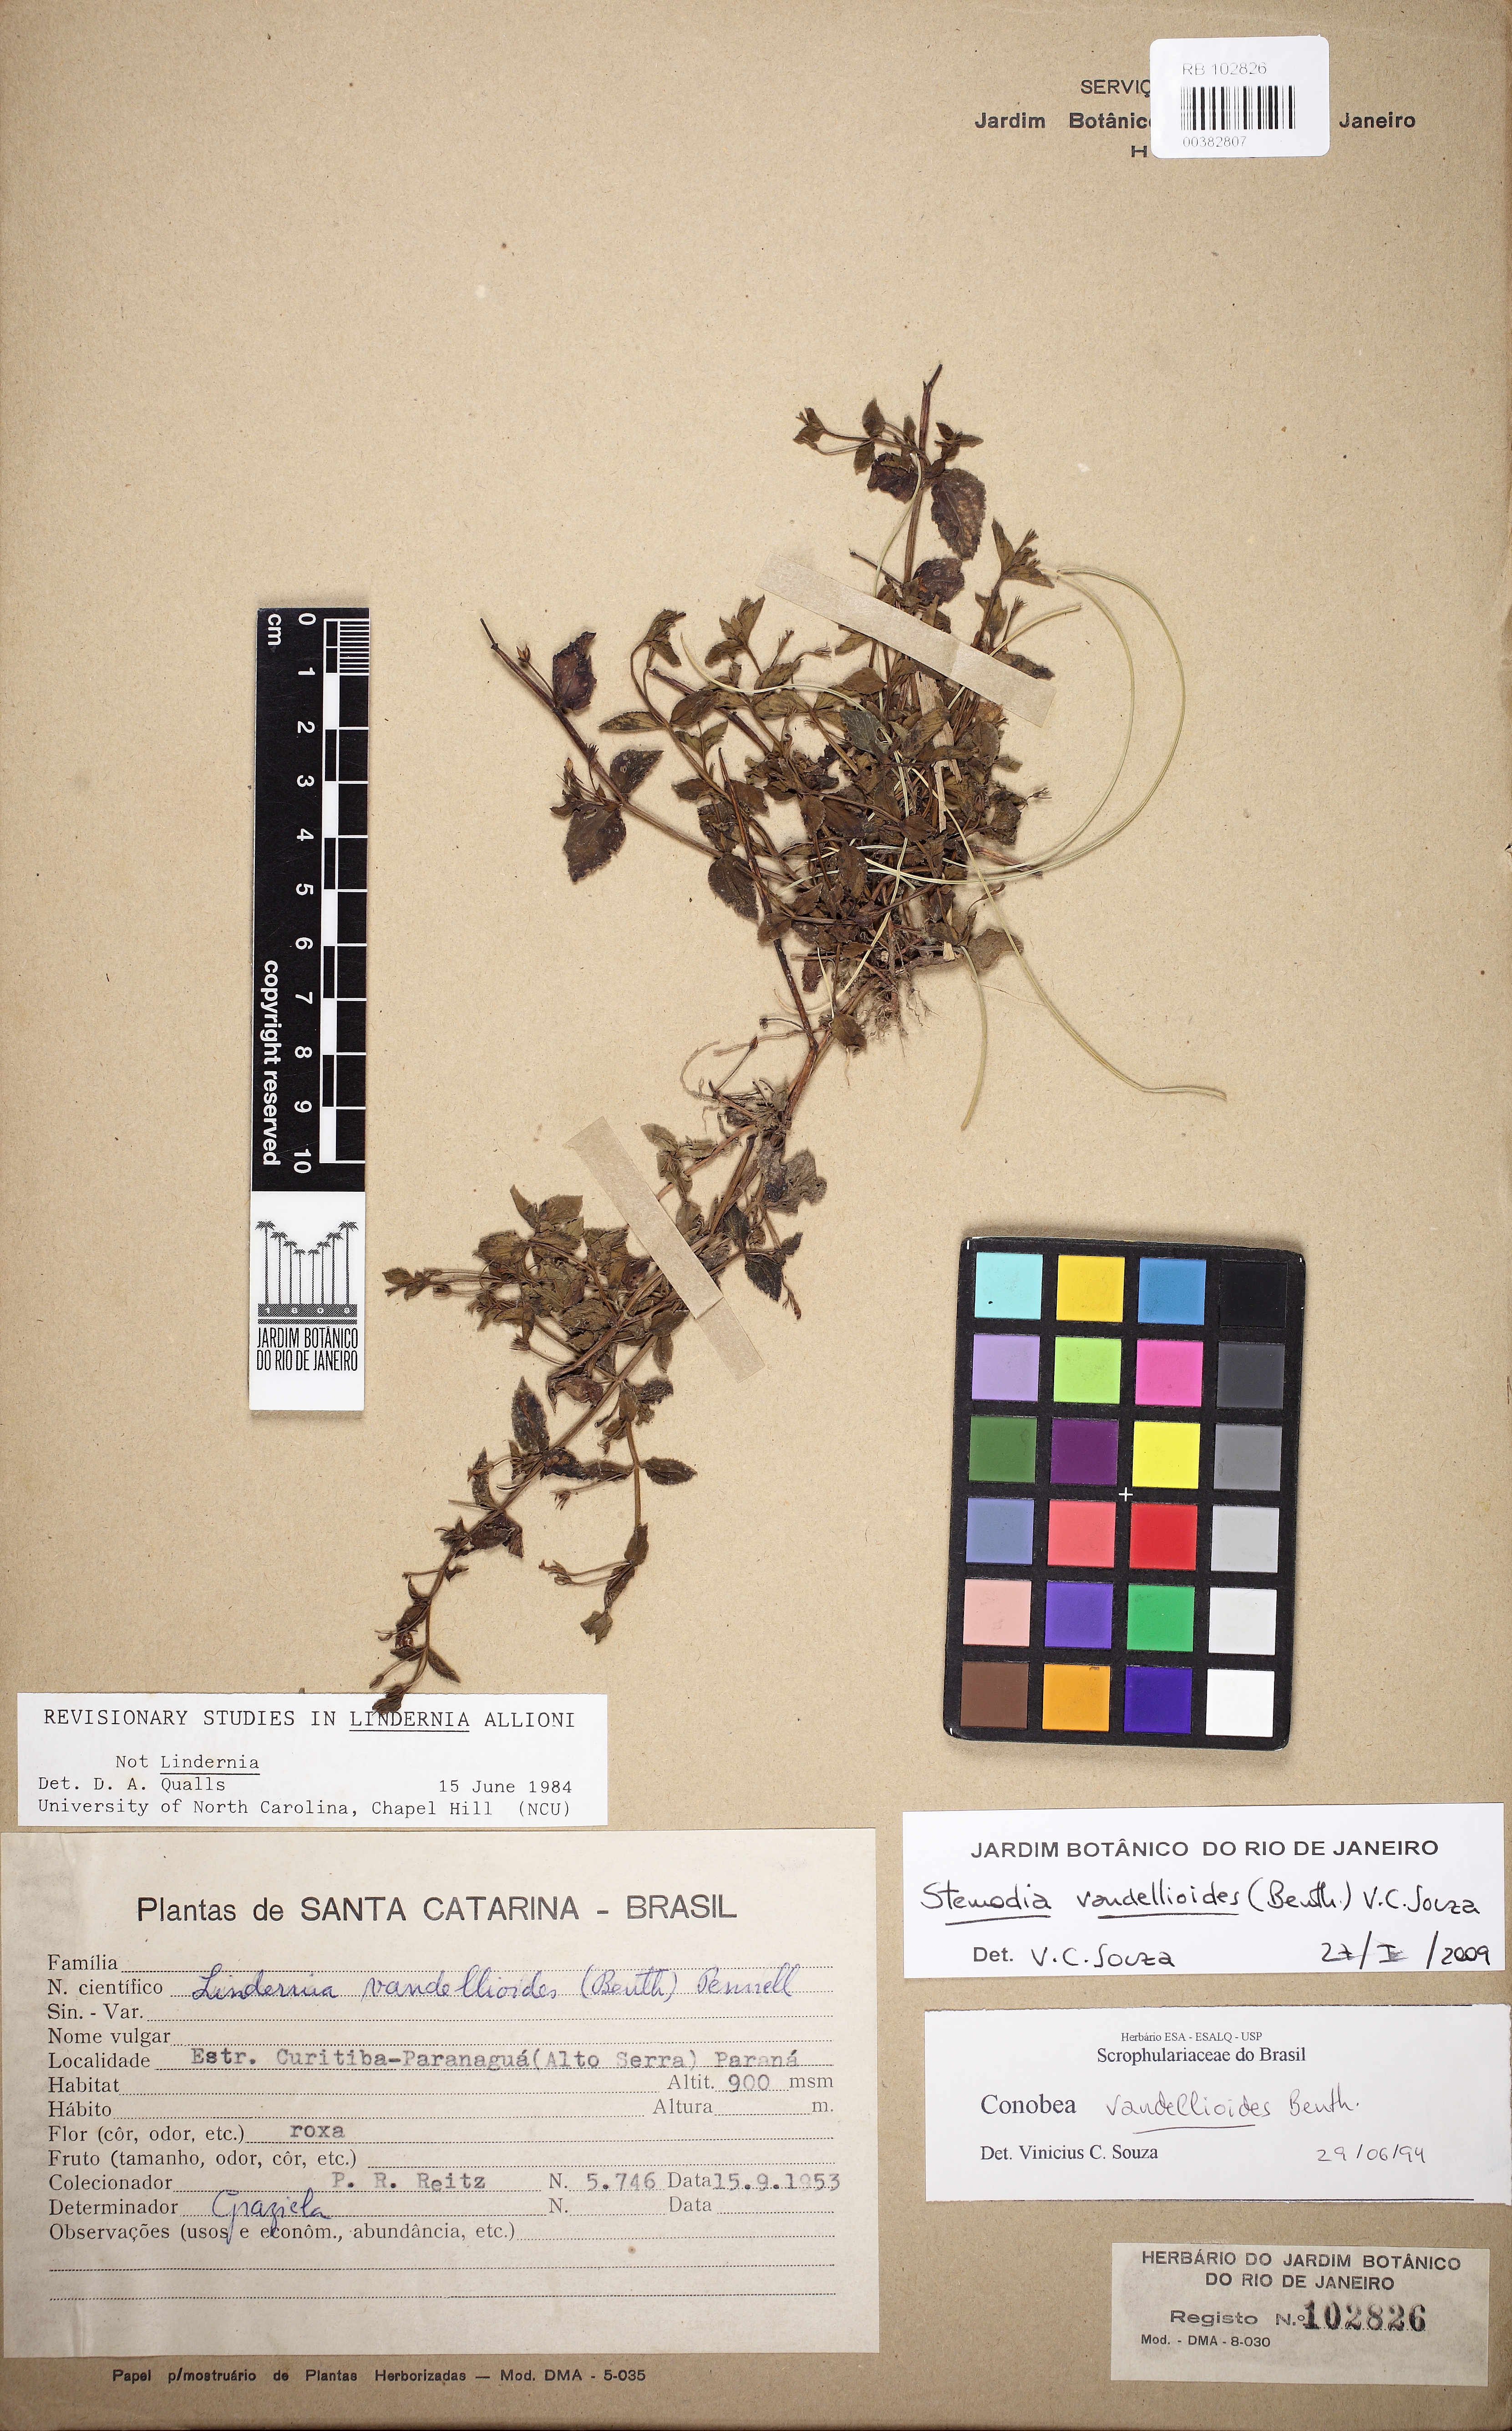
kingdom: Plantae
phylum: Tracheophyta
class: Magnoliopsida
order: Lamiales
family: Plantaginaceae
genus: Darcya
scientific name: Darcya vandellioides
